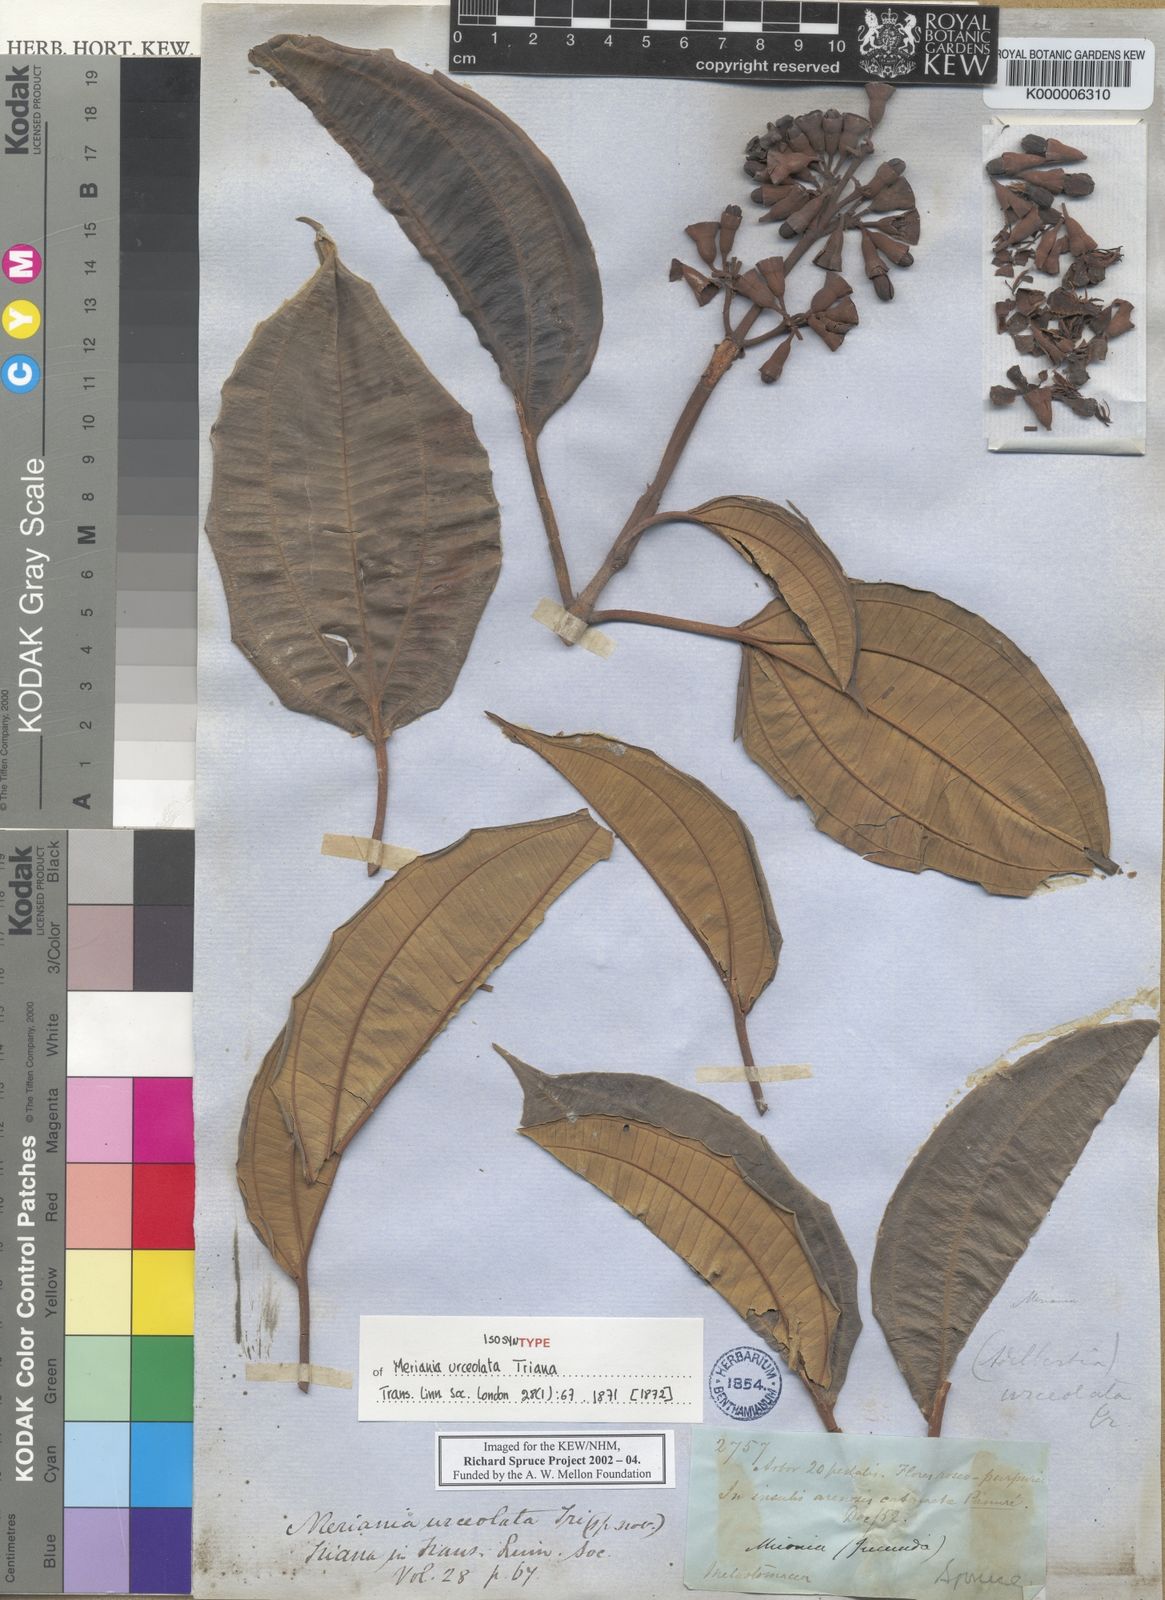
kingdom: Plantae
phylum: Tracheophyta
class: Magnoliopsida
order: Myrtales
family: Melastomataceae
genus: Meriania
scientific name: Meriania urceolata
